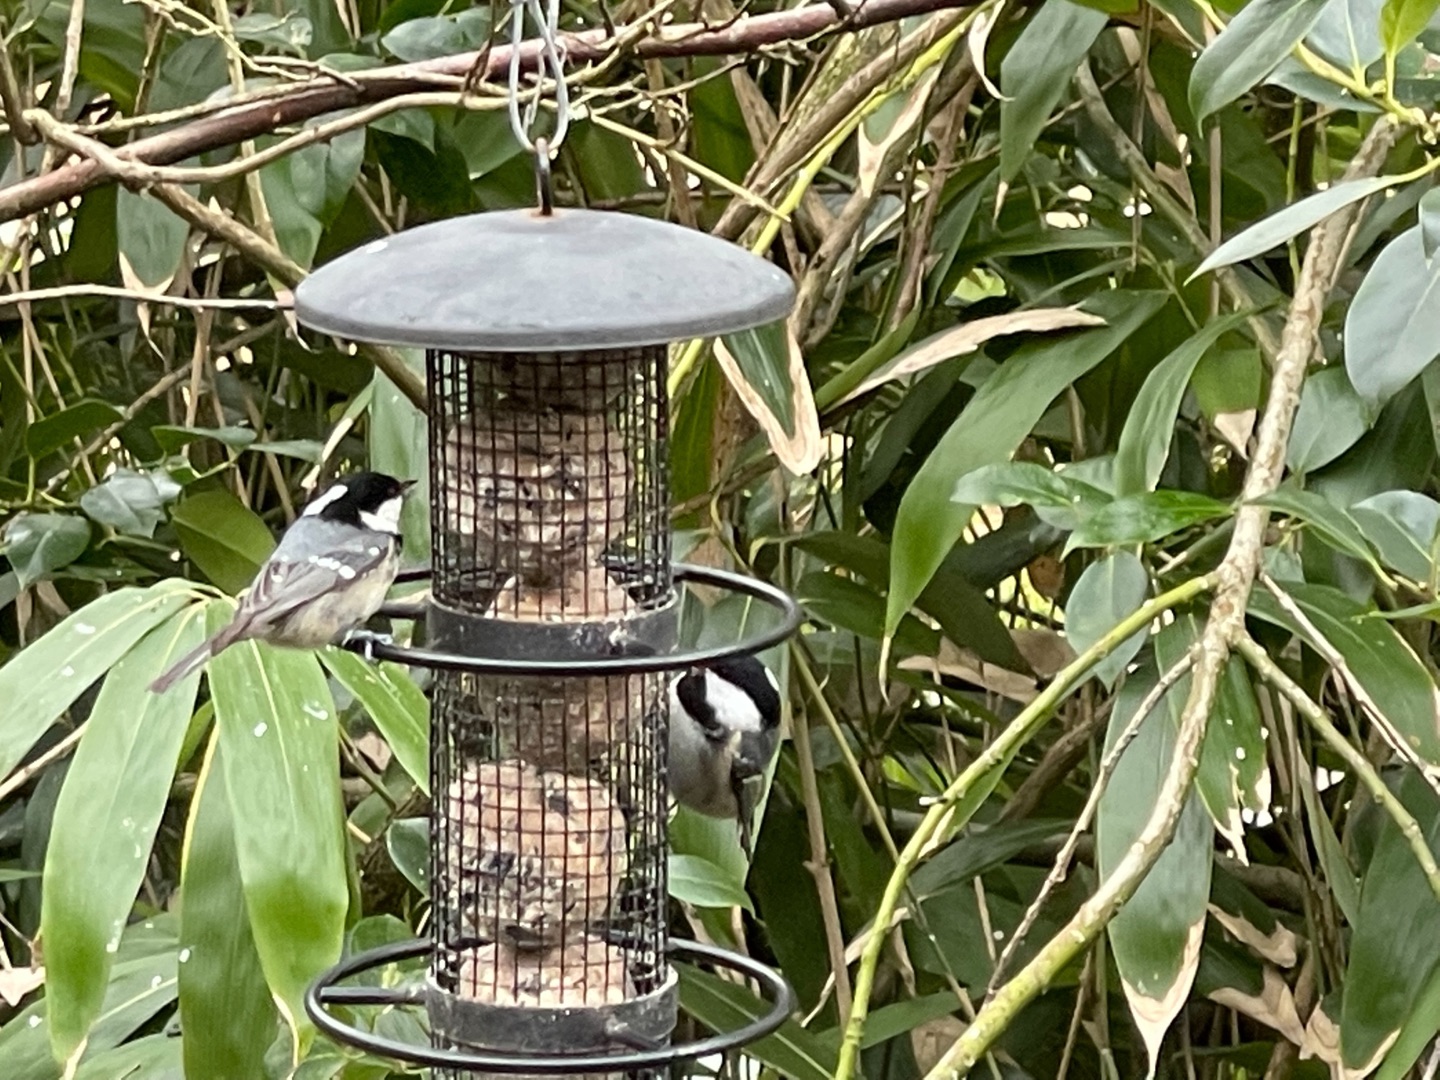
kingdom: Animalia
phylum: Chordata
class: Aves
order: Passeriformes
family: Paridae
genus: Periparus
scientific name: Periparus ater
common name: Sortmejse
